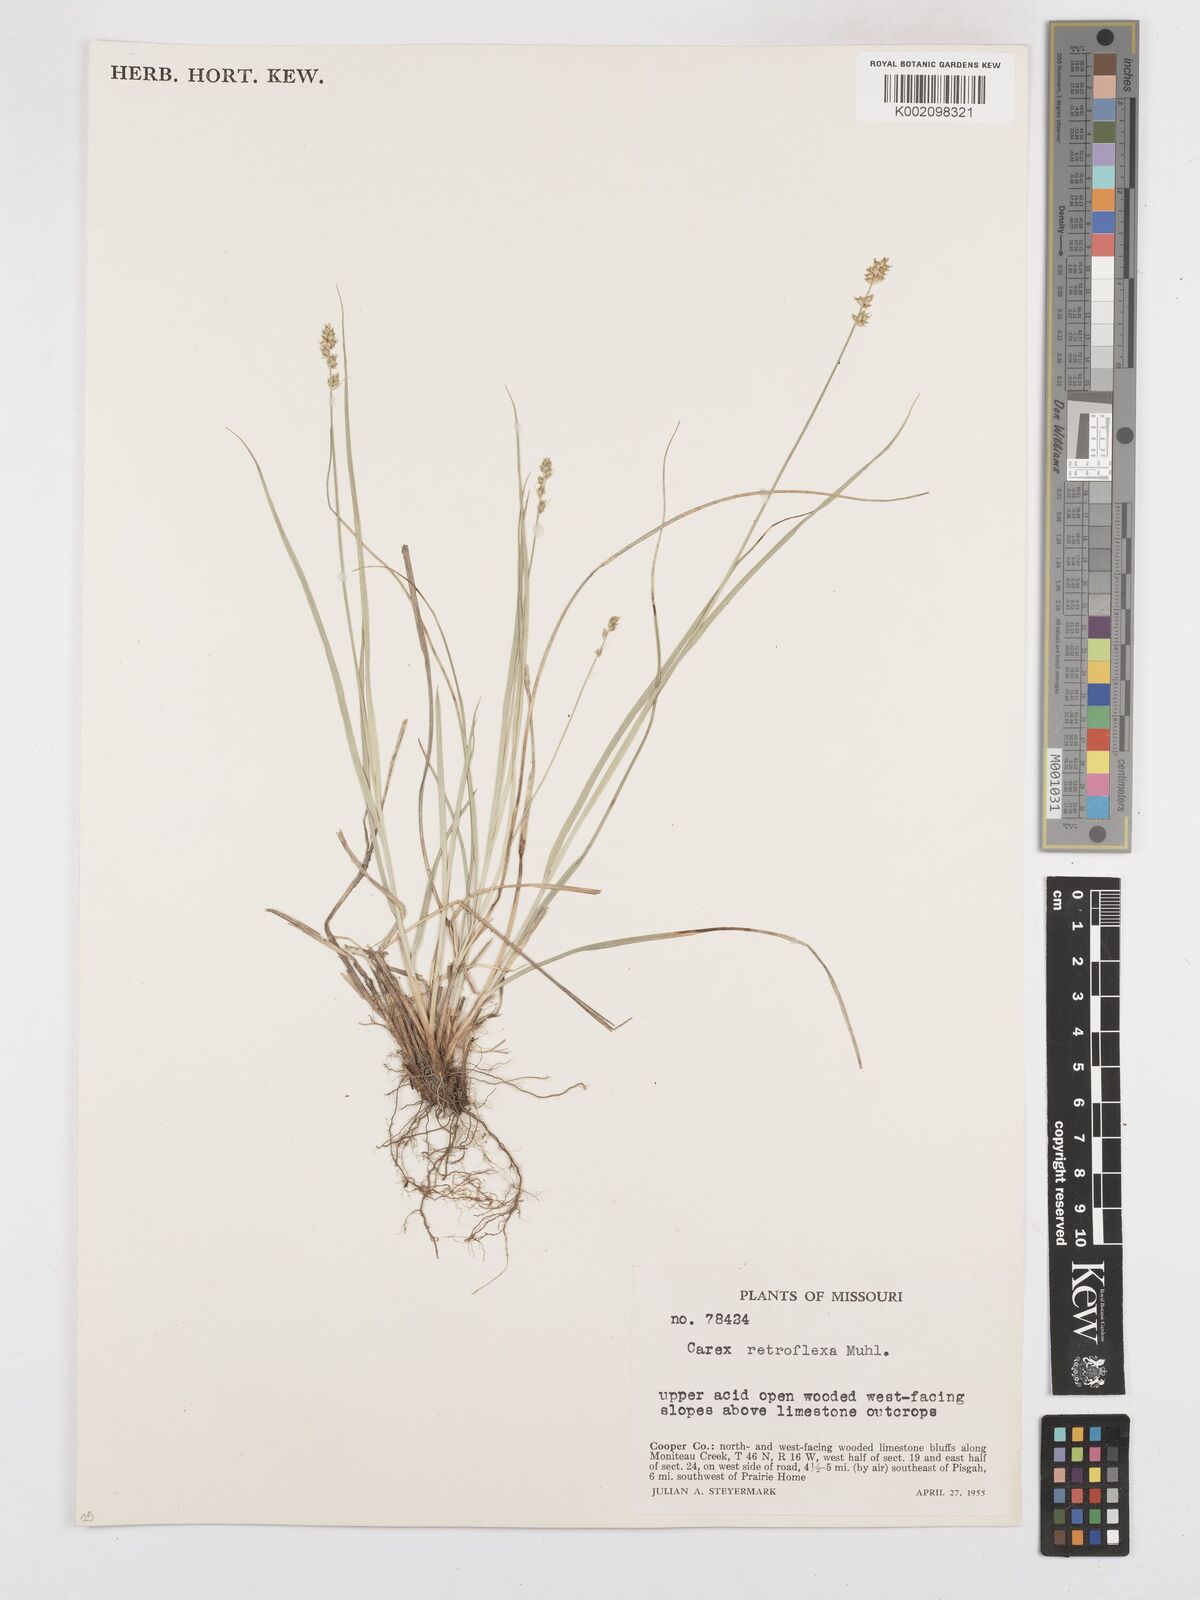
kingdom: Plantae
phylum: Tracheophyta
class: Liliopsida
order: Poales
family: Cyperaceae
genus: Carex
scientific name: Carex retroflexa
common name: Reflexed sedge
